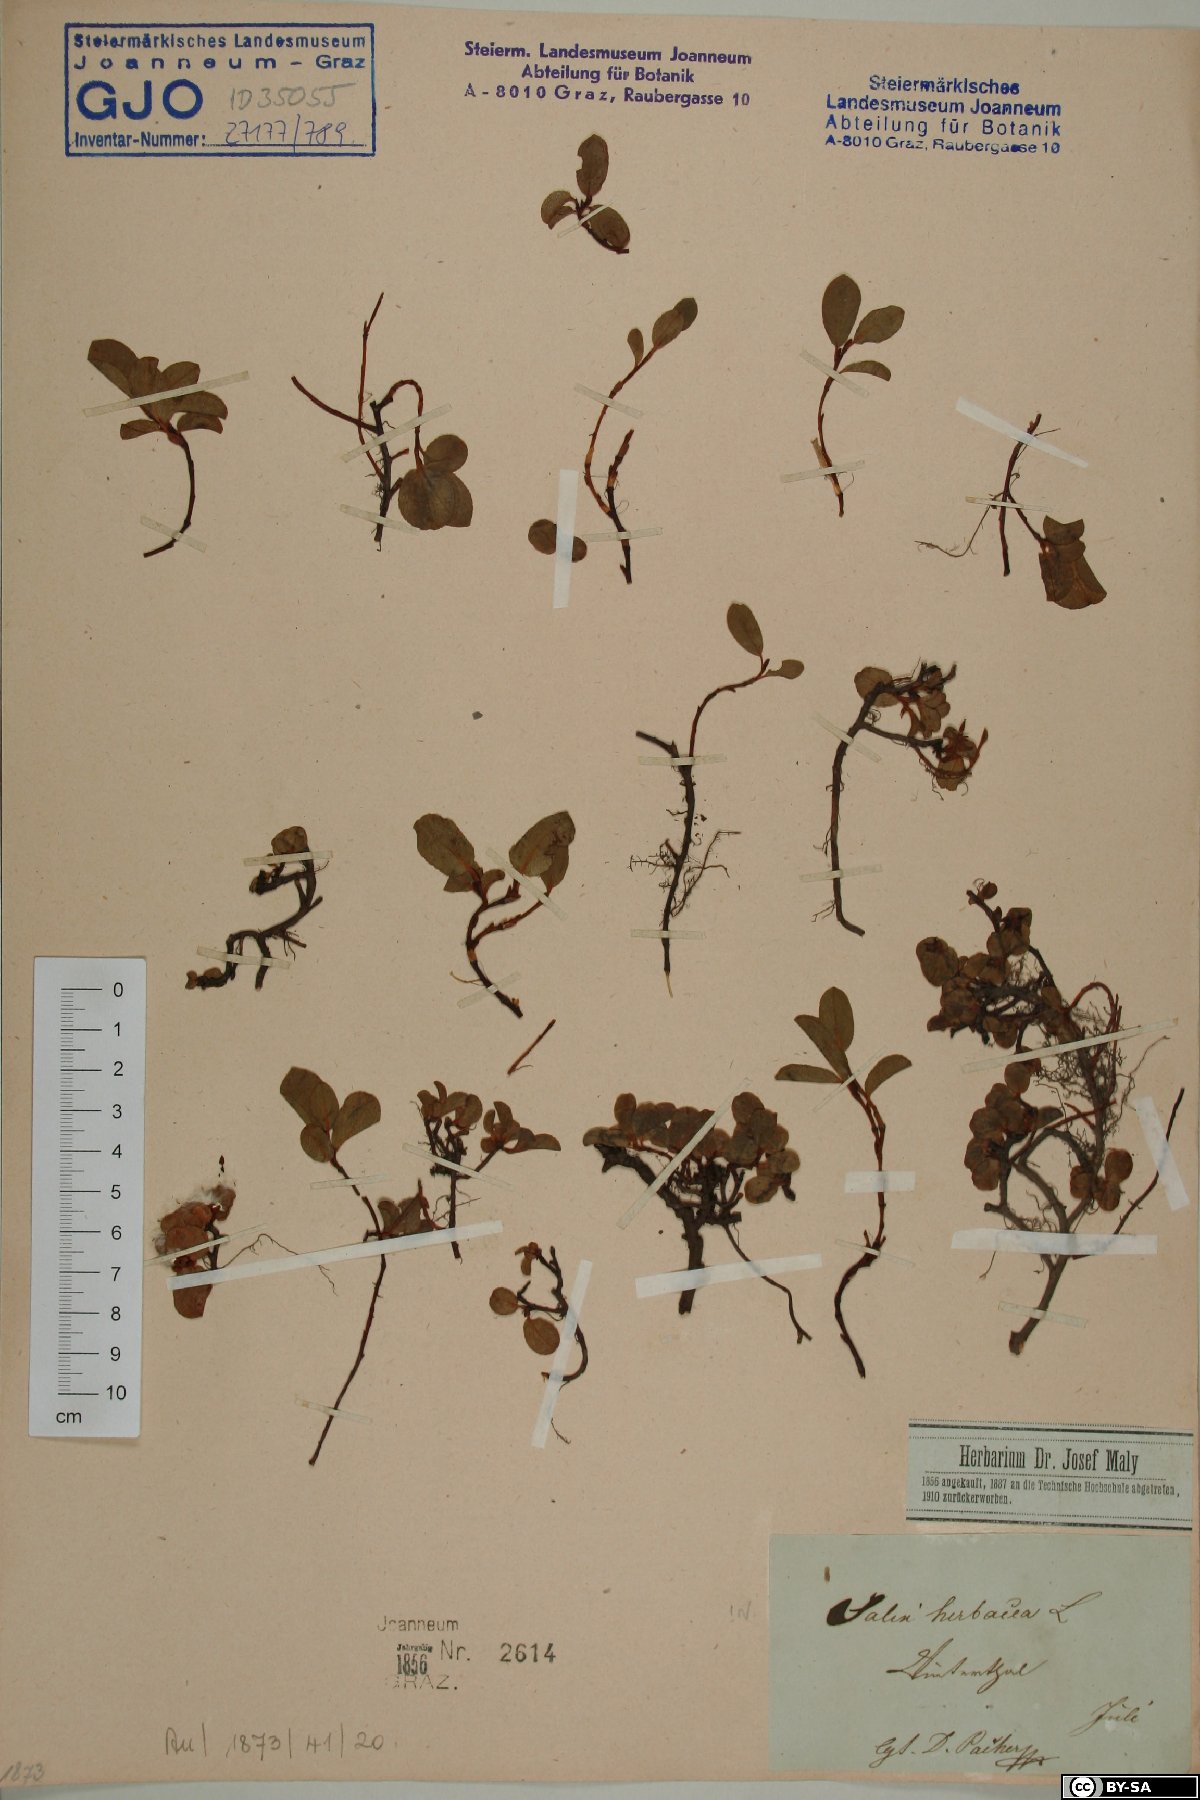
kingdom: Plantae
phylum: Tracheophyta
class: Magnoliopsida
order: Malpighiales
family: Salicaceae
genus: Salix
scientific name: Salix herbacea
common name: Dwarf willow
